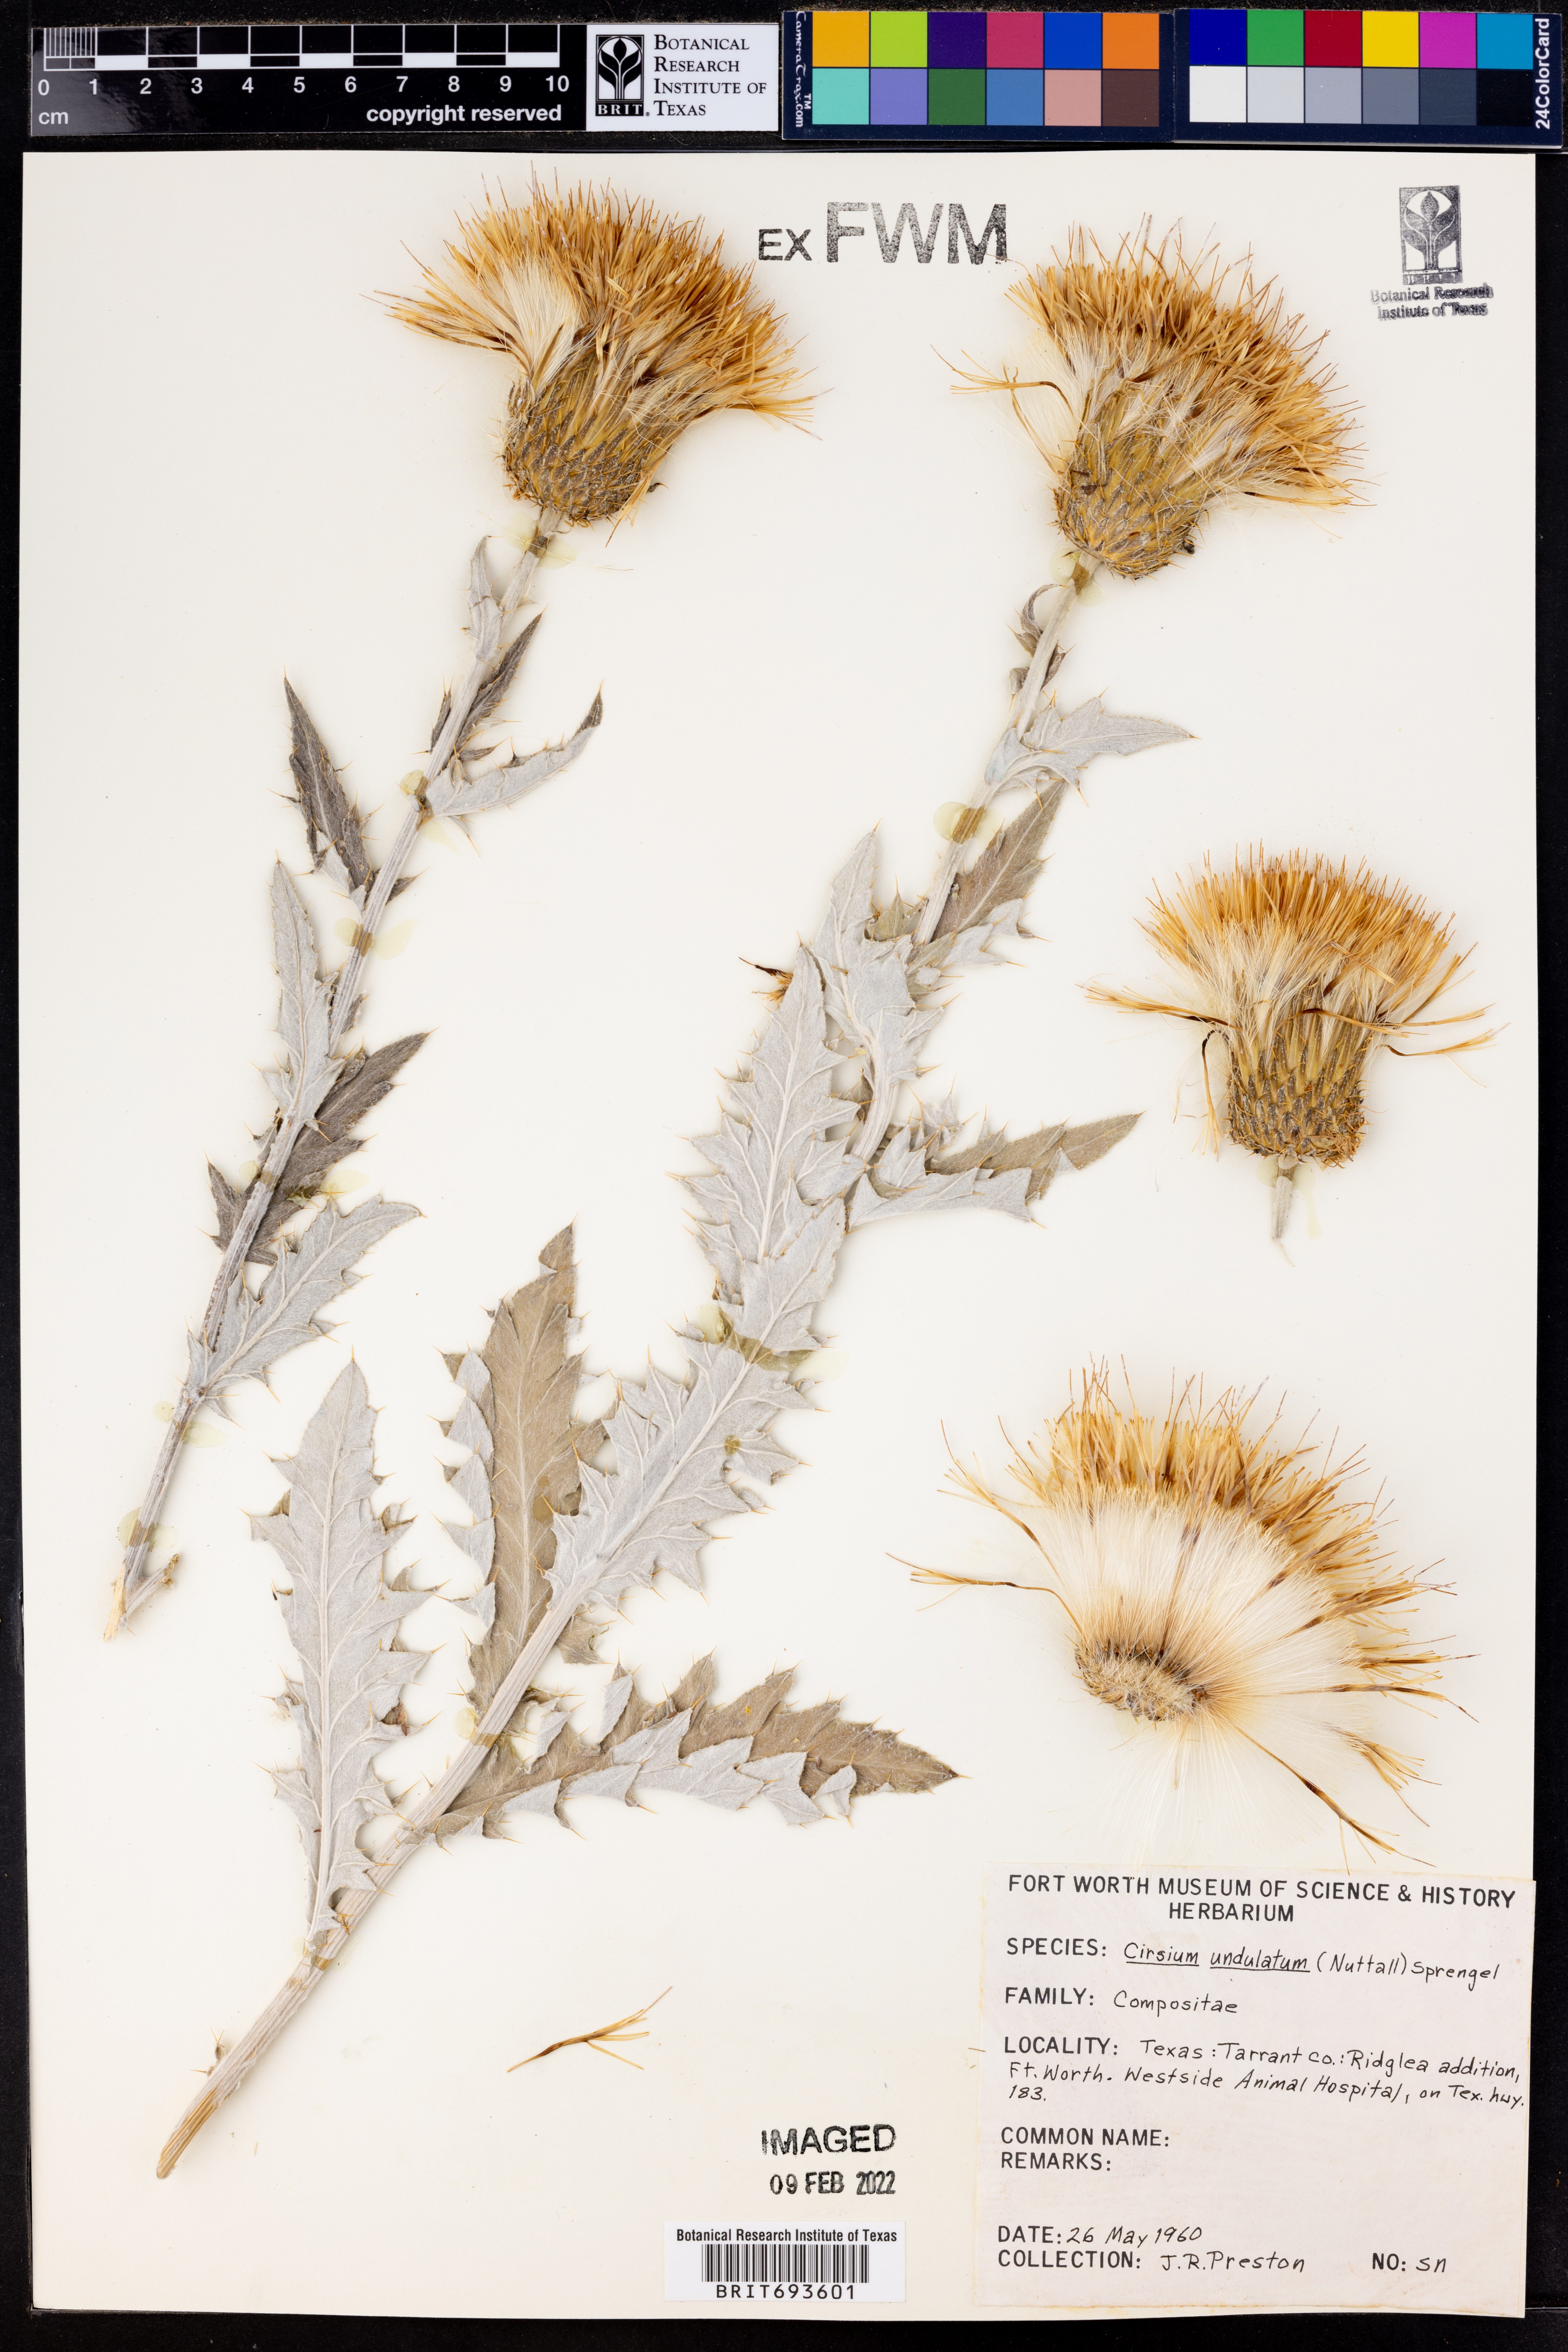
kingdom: Plantae
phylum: Tracheophyta
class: Magnoliopsida
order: Asterales
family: Asteraceae
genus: Cirsium
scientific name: Cirsium undulatum
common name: Pasture thistle
